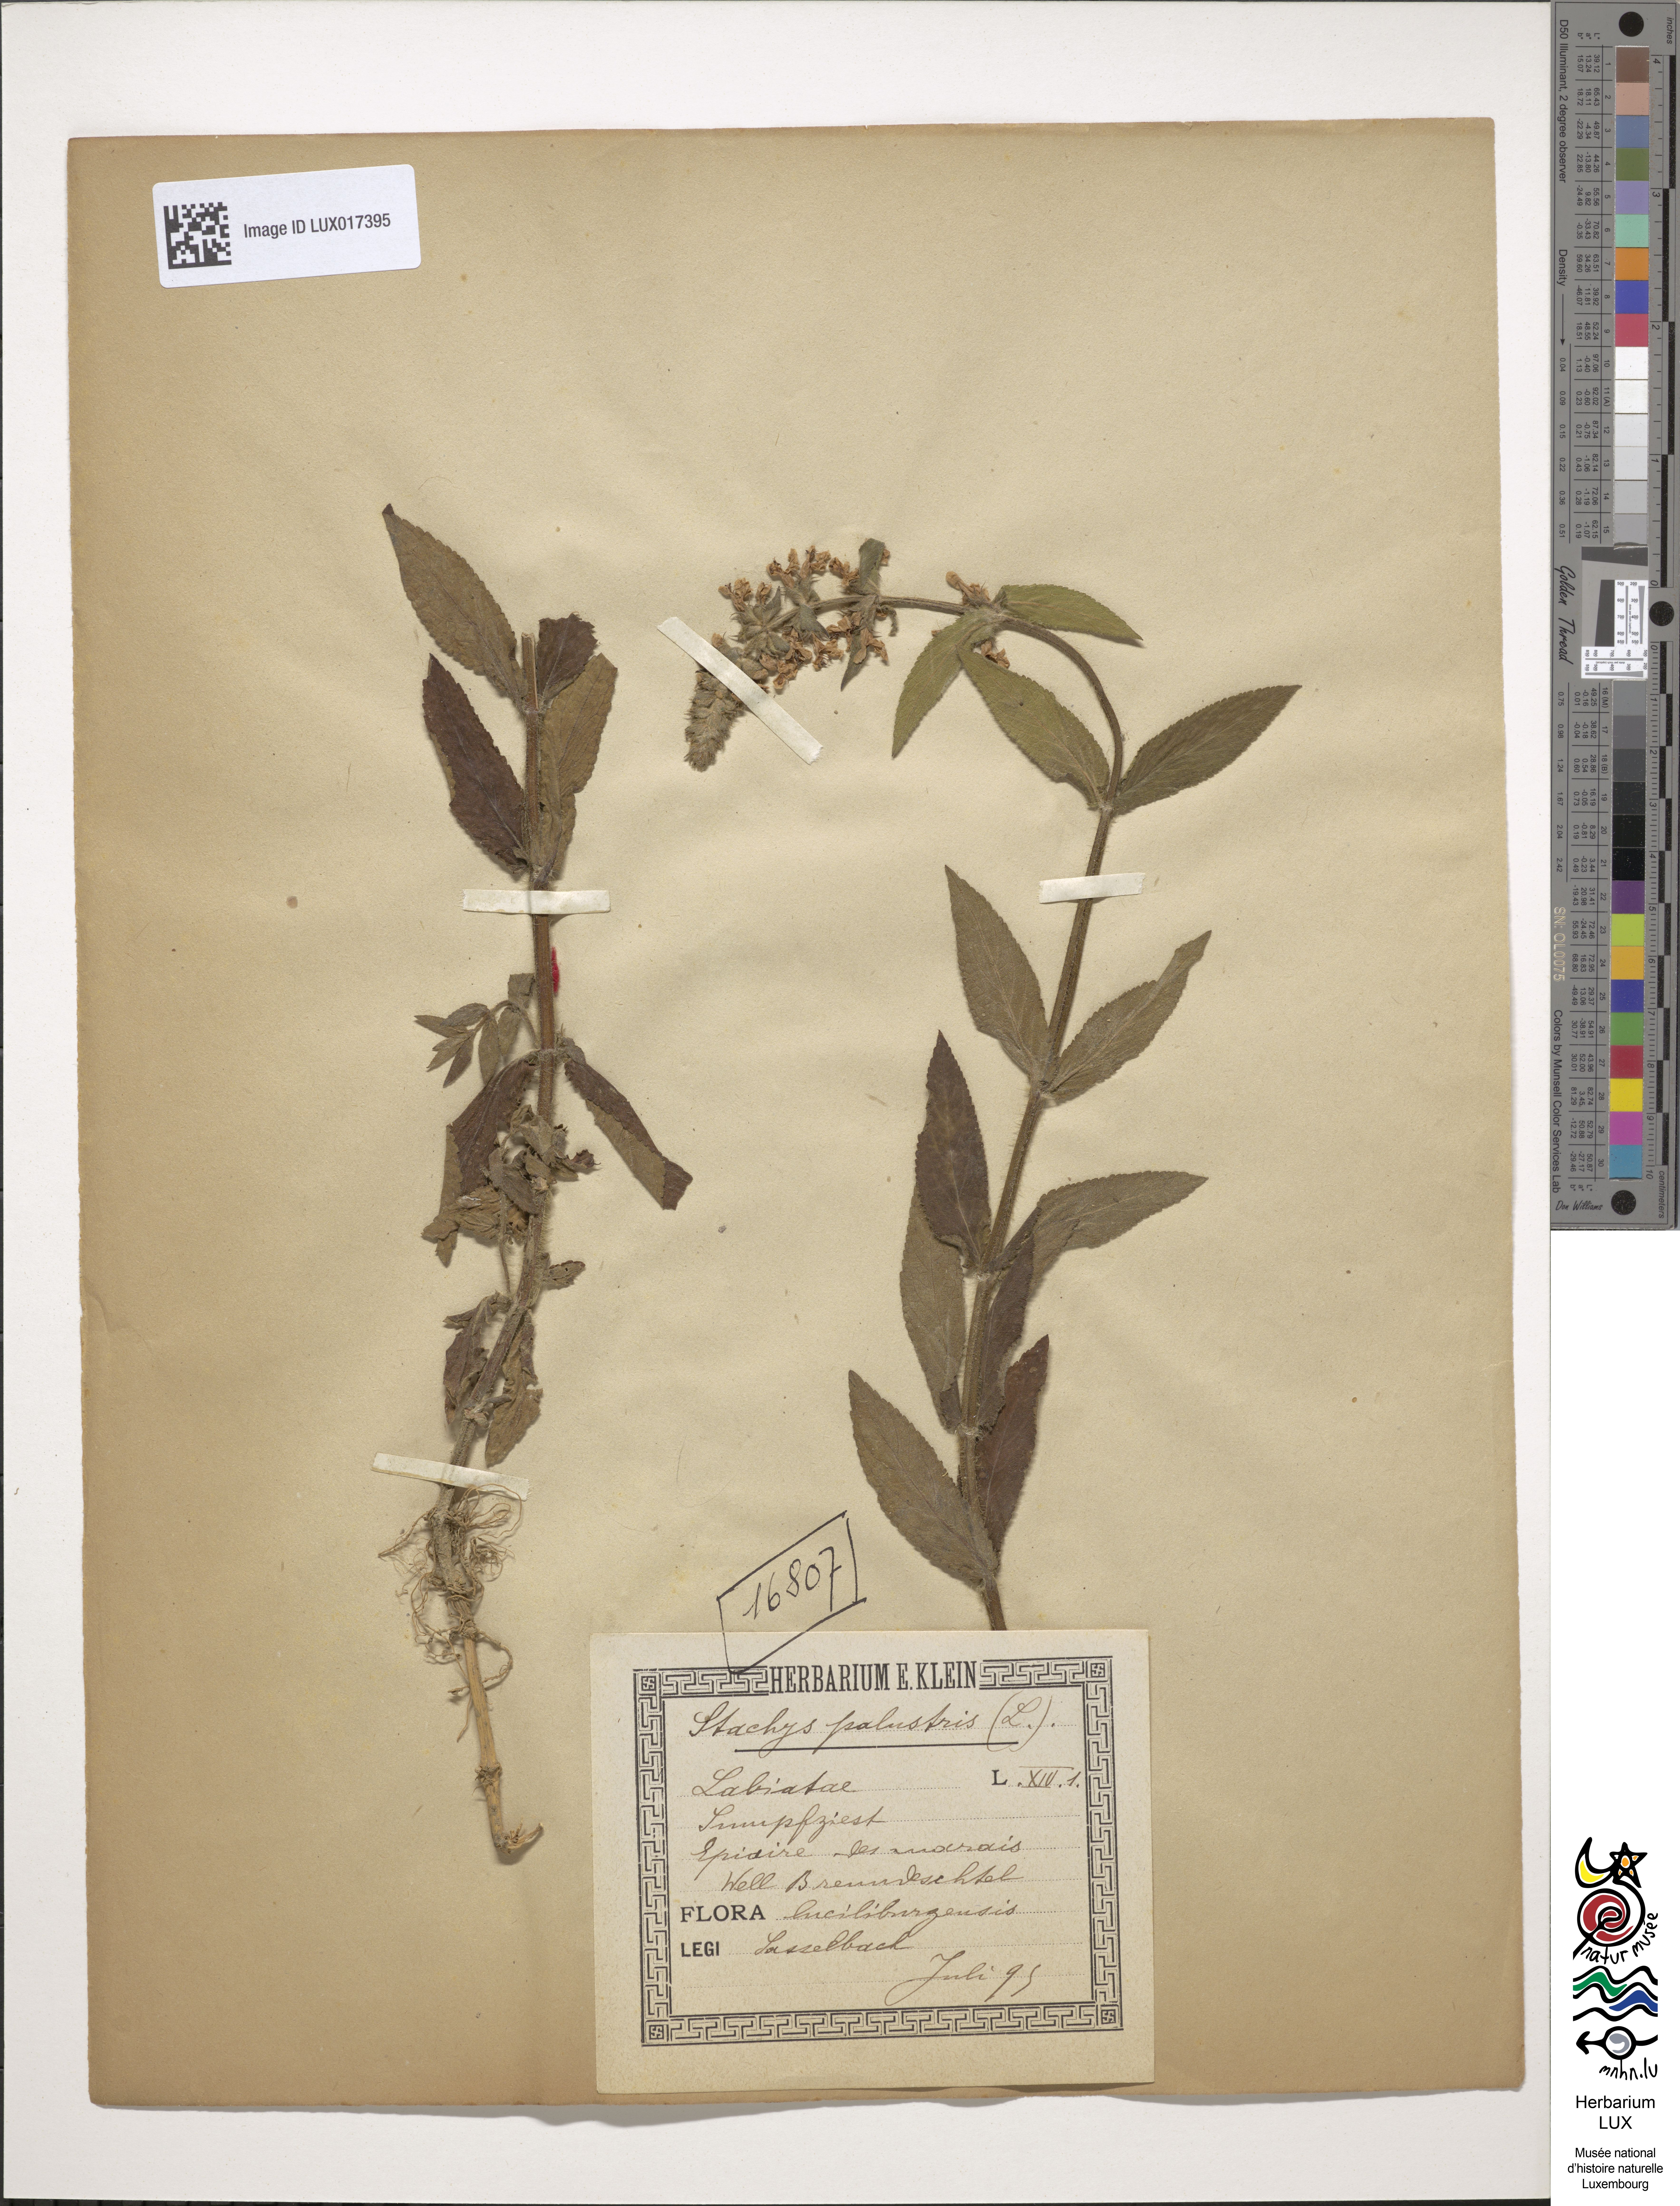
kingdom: Plantae
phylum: Tracheophyta
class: Magnoliopsida
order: Lamiales
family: Lamiaceae
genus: Stachys
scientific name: Stachys palustris
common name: Marsh woundwort
